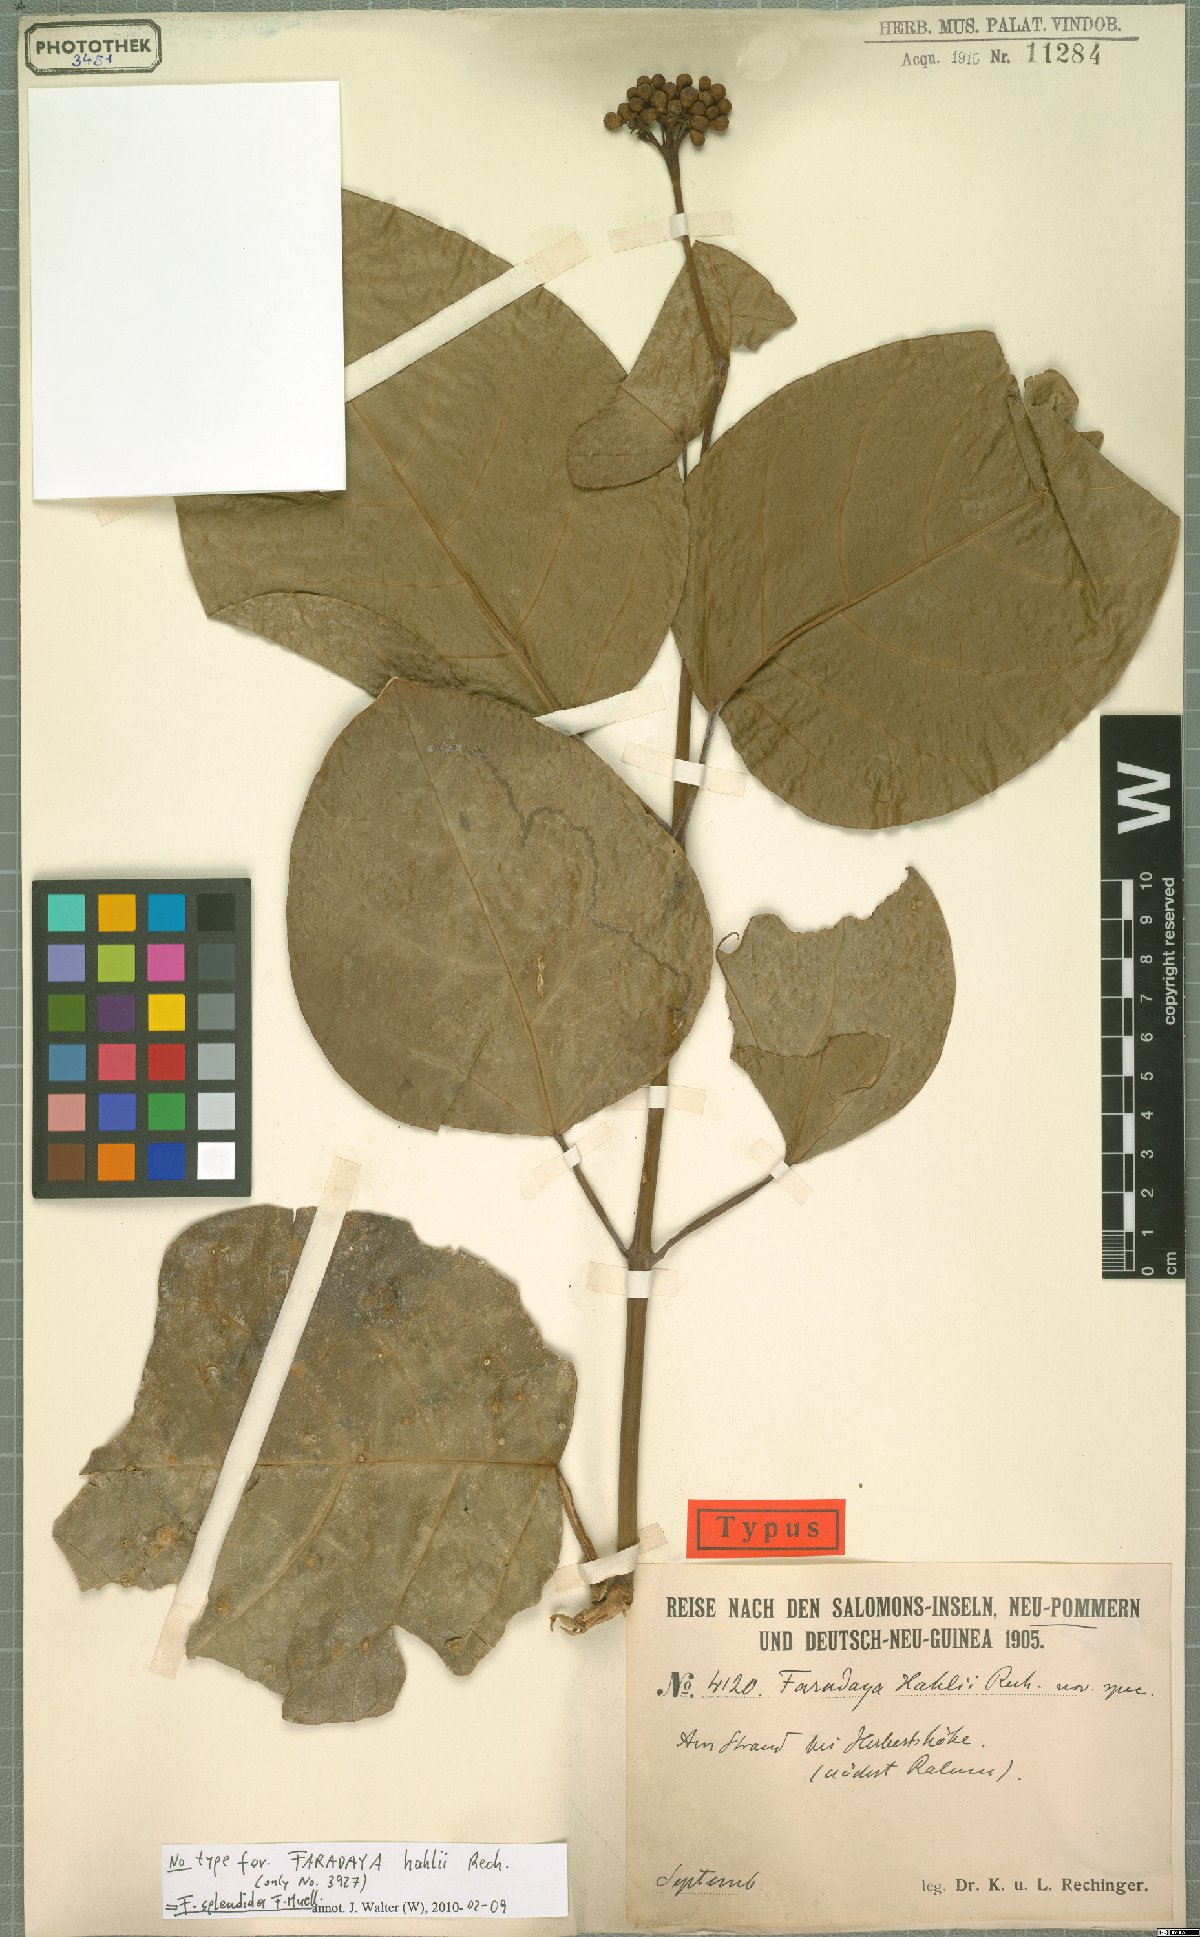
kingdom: Plantae
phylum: Tracheophyta
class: Magnoliopsida
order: Lamiales
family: Lamiaceae
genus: Oxera
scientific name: Oxera splendida
